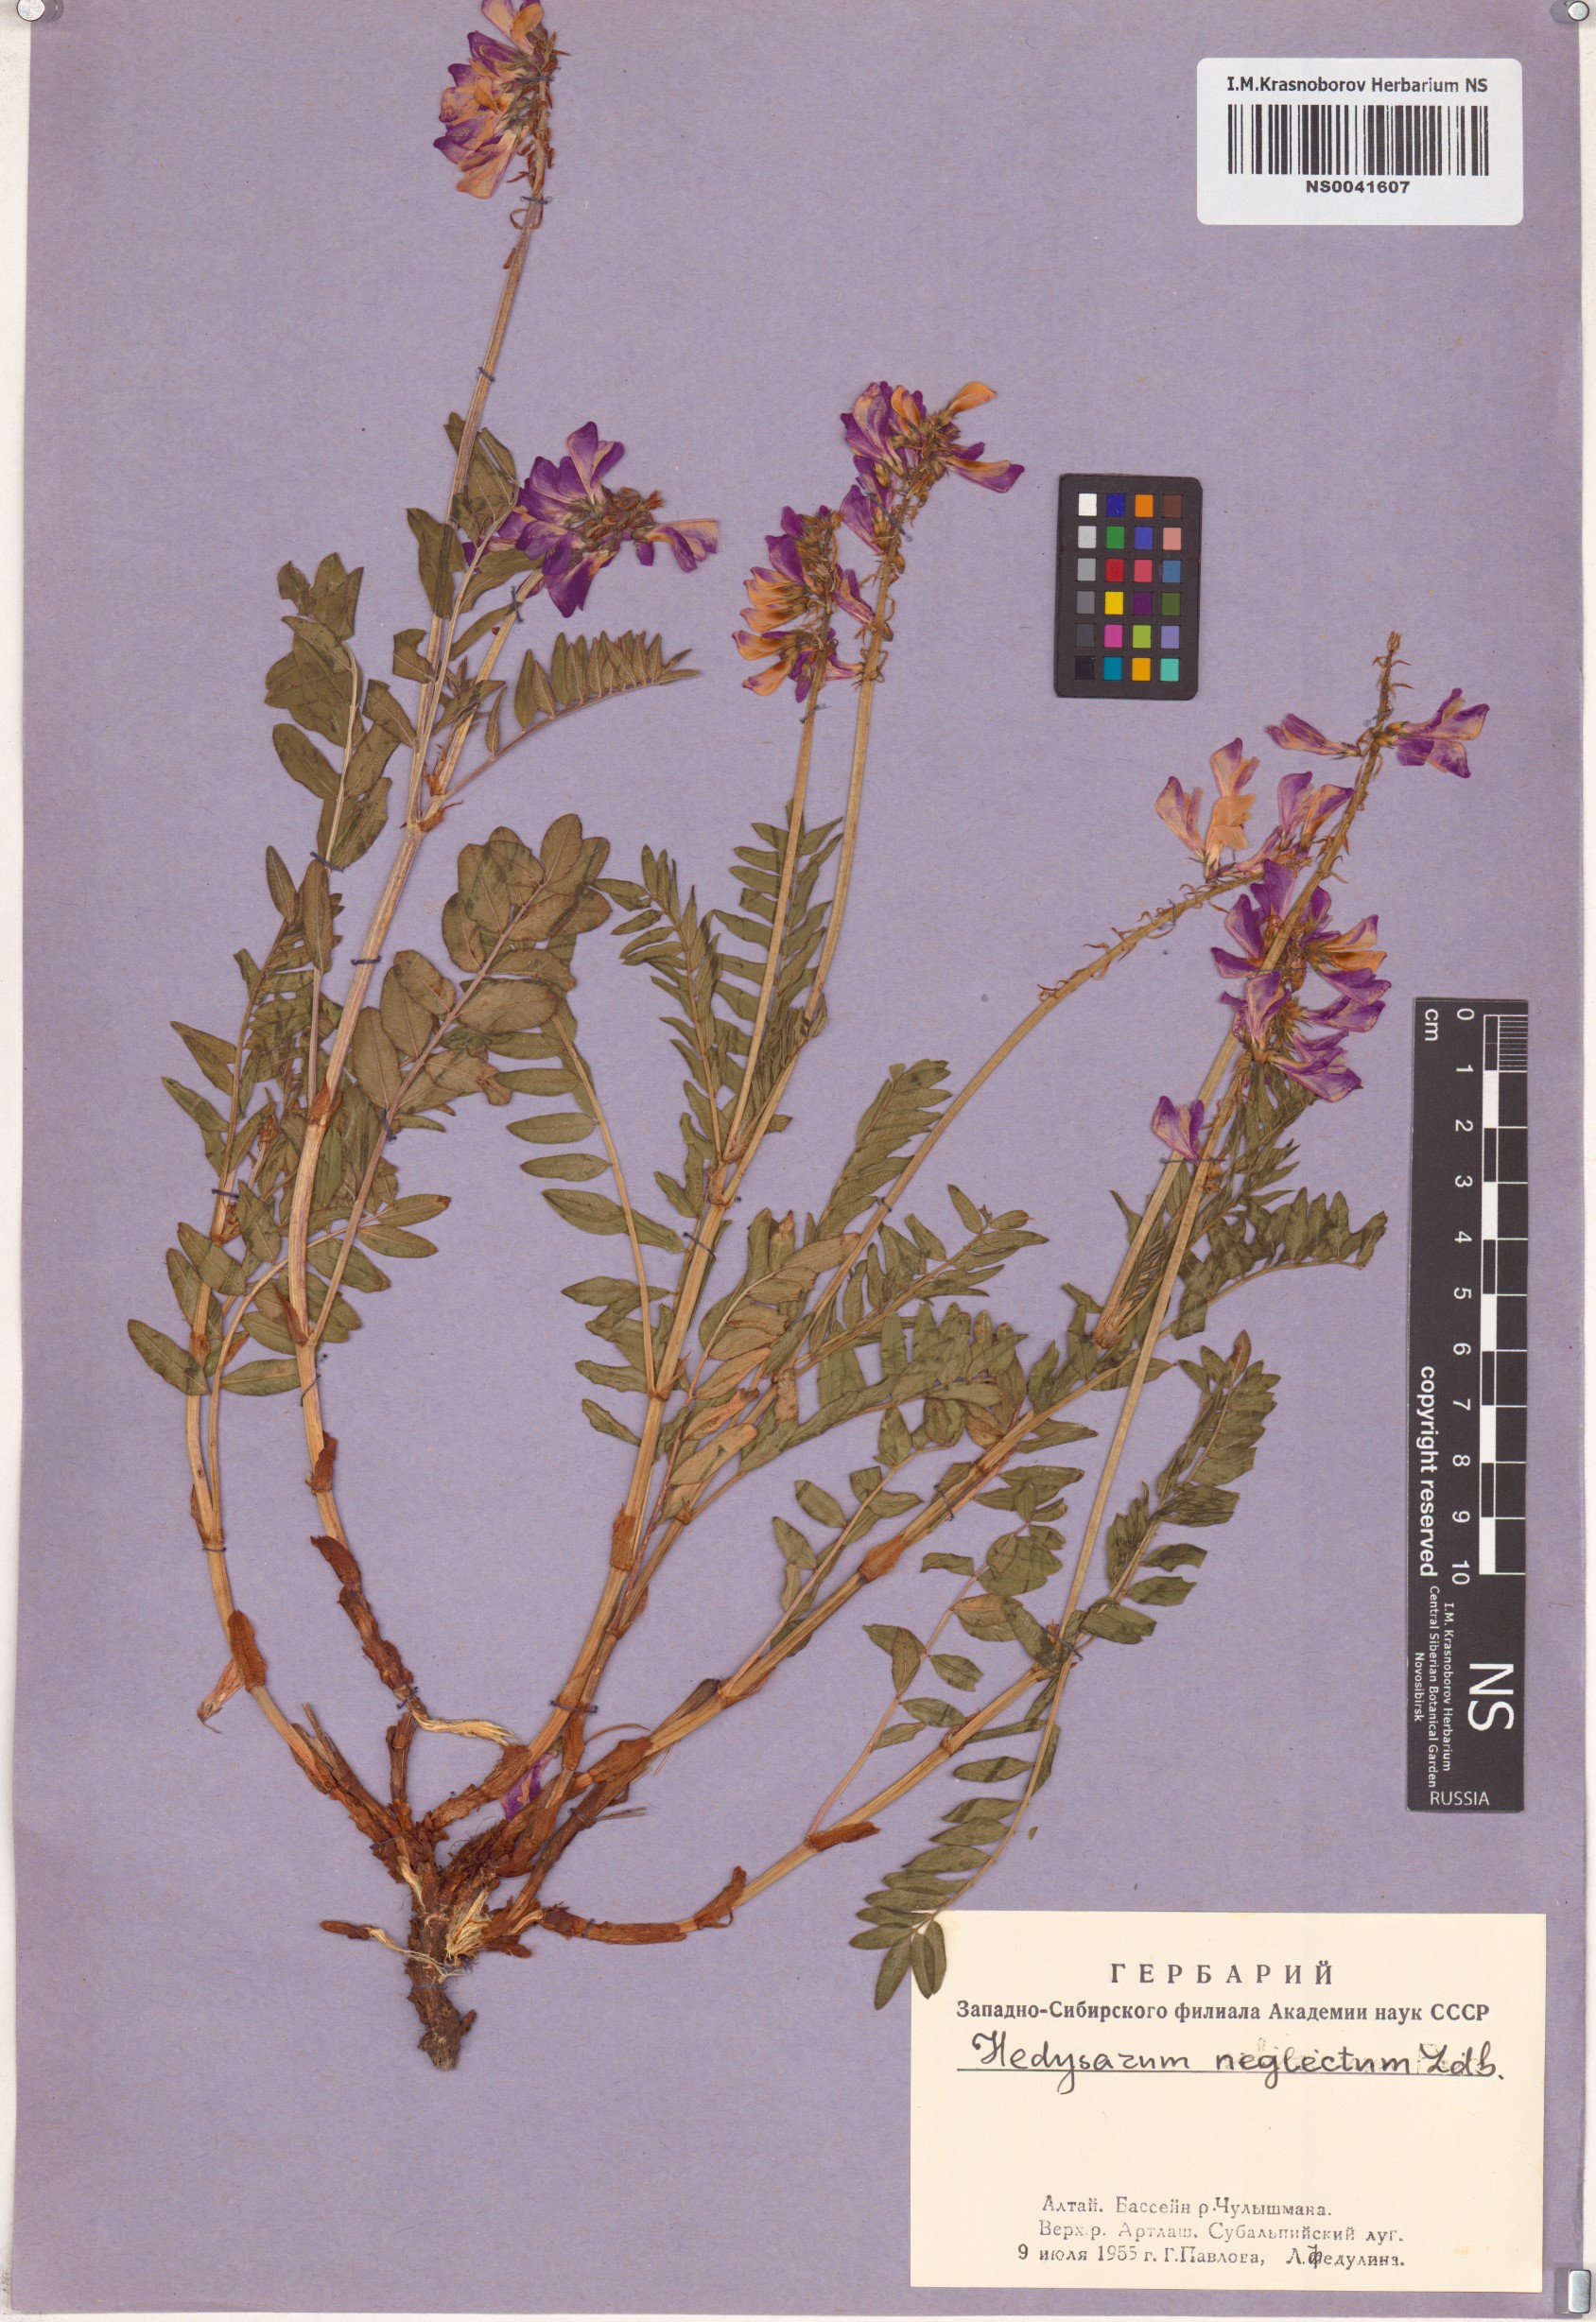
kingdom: Plantae
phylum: Tracheophyta
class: Magnoliopsida
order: Fabales
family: Fabaceae
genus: Hedysarum
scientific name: Hedysarum neglectum
